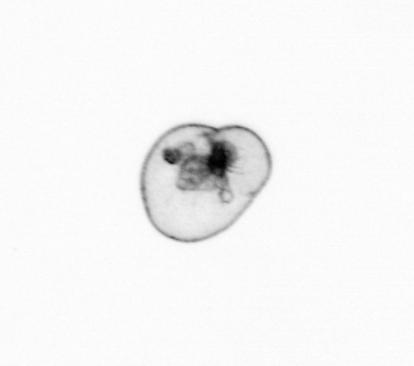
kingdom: Chromista
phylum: Myzozoa
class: Dinophyceae
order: Noctilucales
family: Noctilucaceae
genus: Noctiluca
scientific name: Noctiluca scintillans
